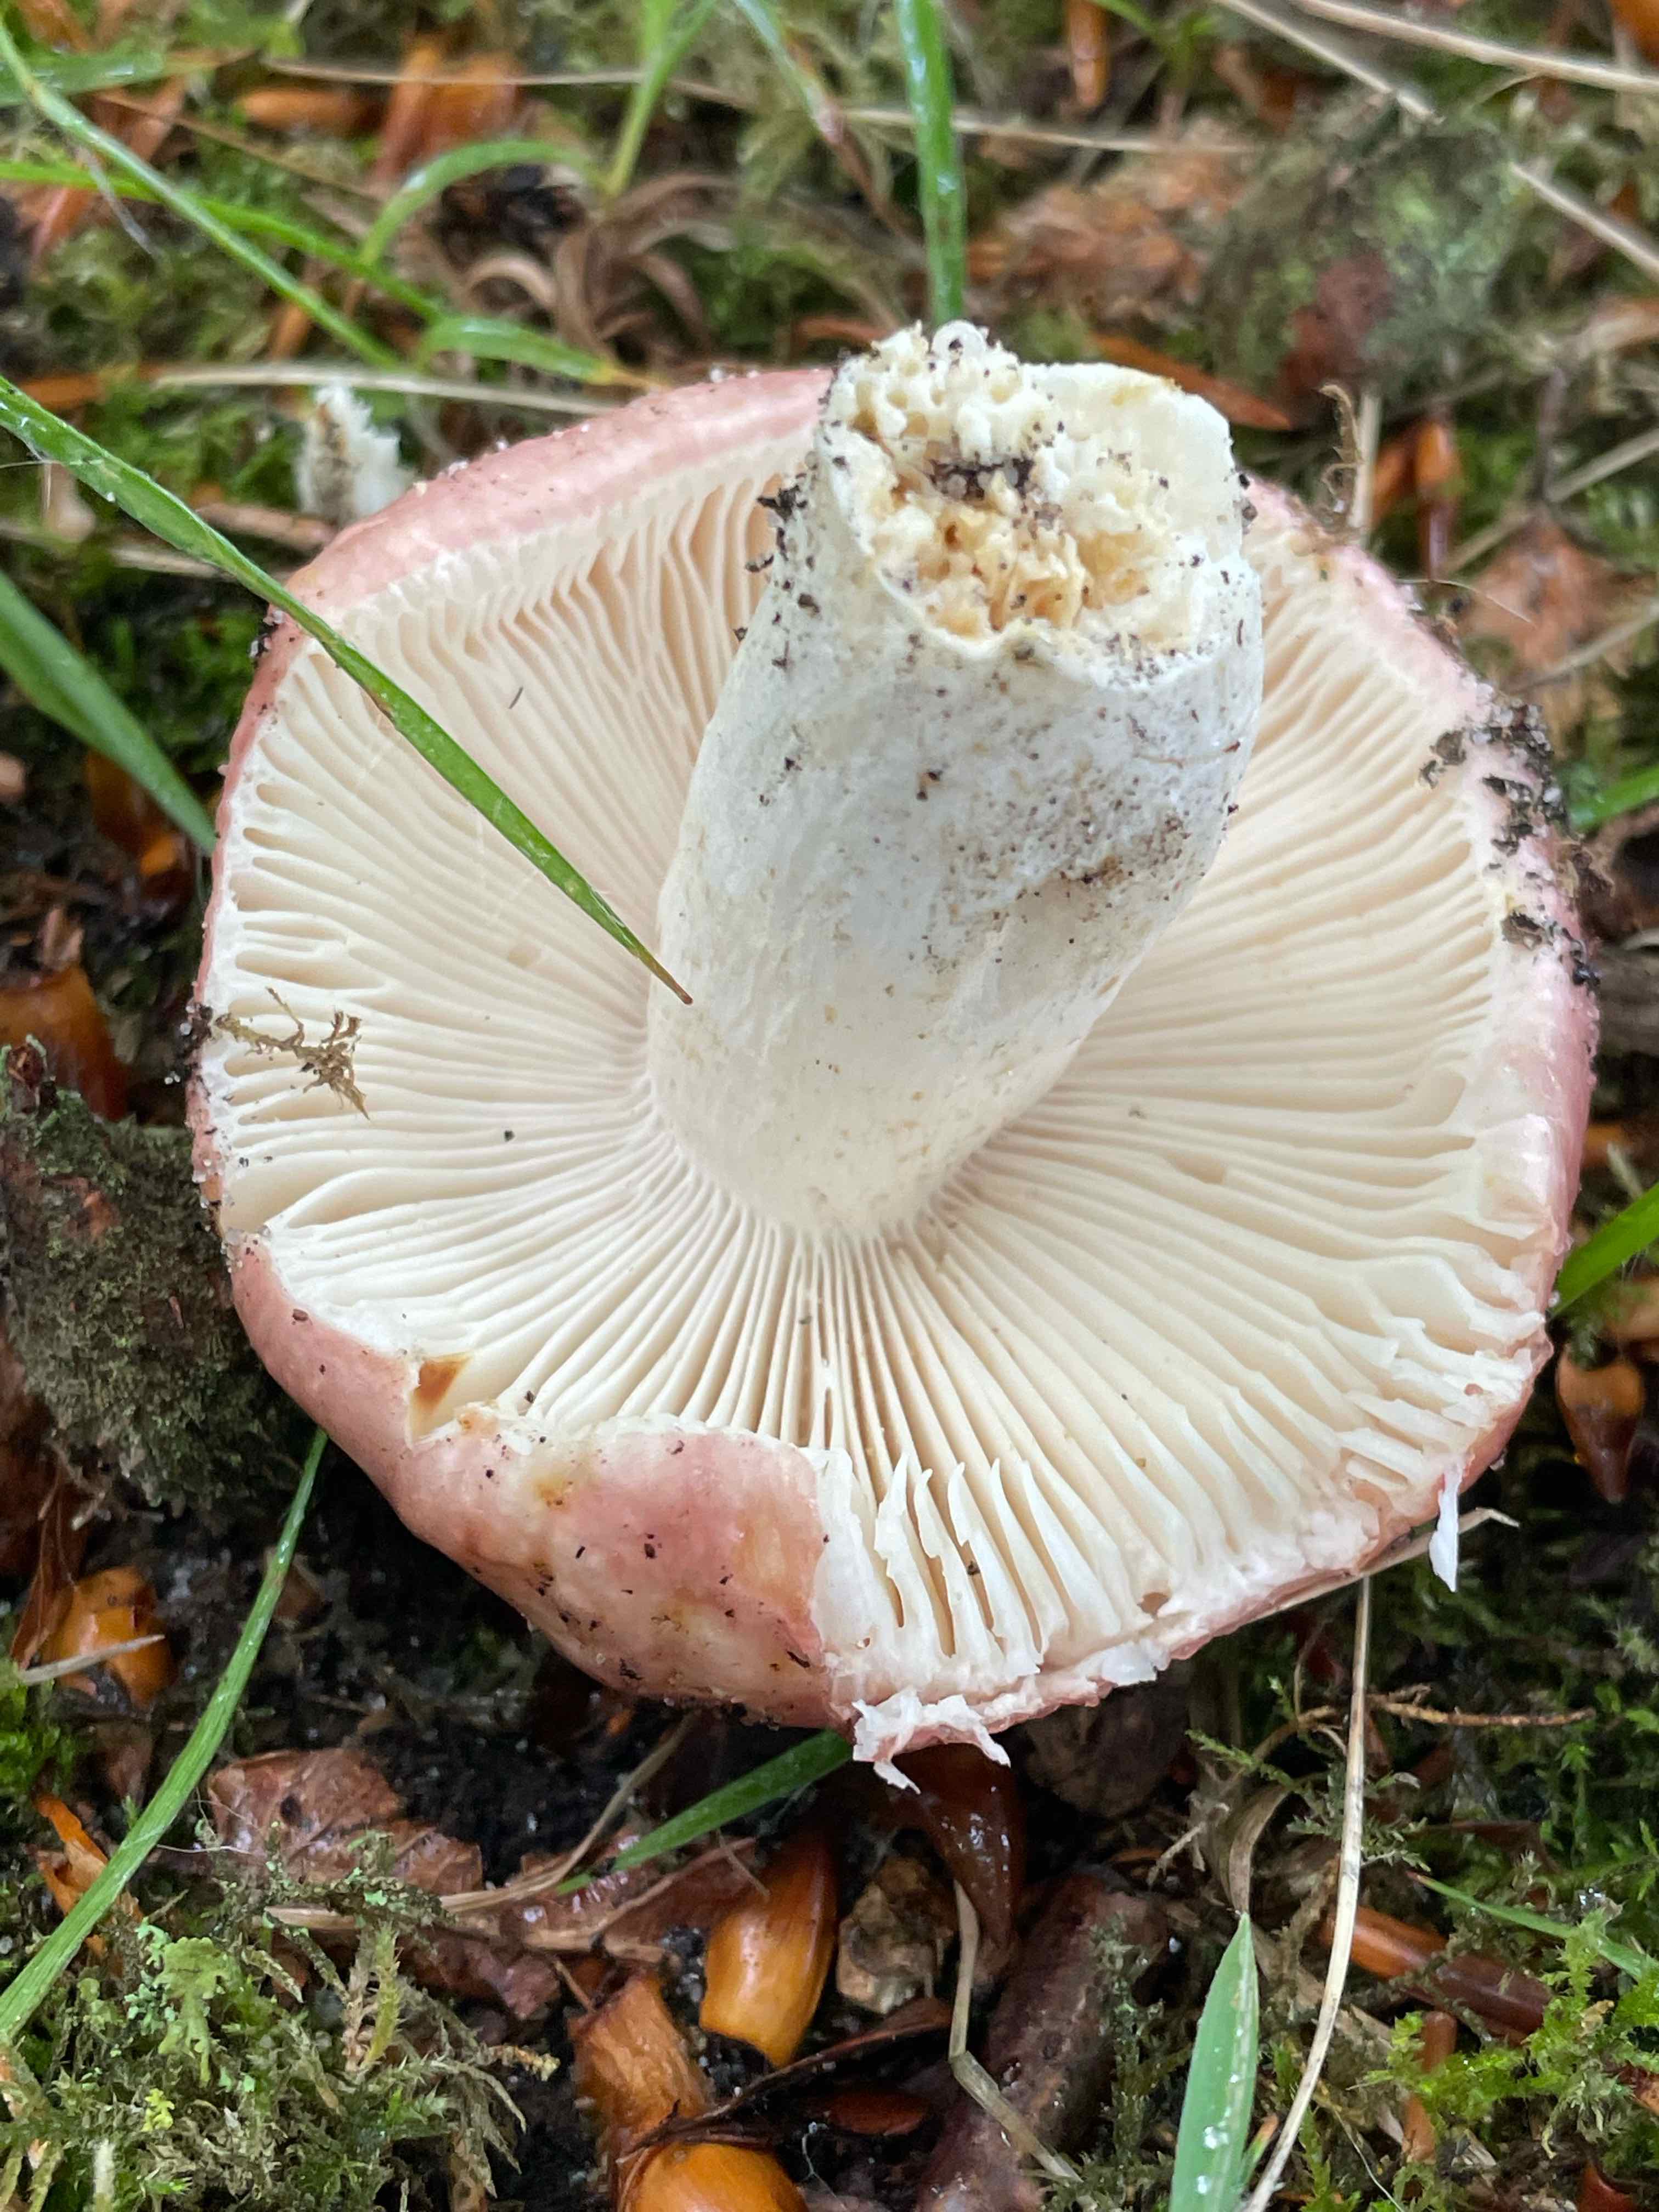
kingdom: Fungi
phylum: Basidiomycota
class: Agaricomycetes
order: Russulales
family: Russulaceae
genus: Russula
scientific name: Russula vesca
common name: spiselig skørhat
